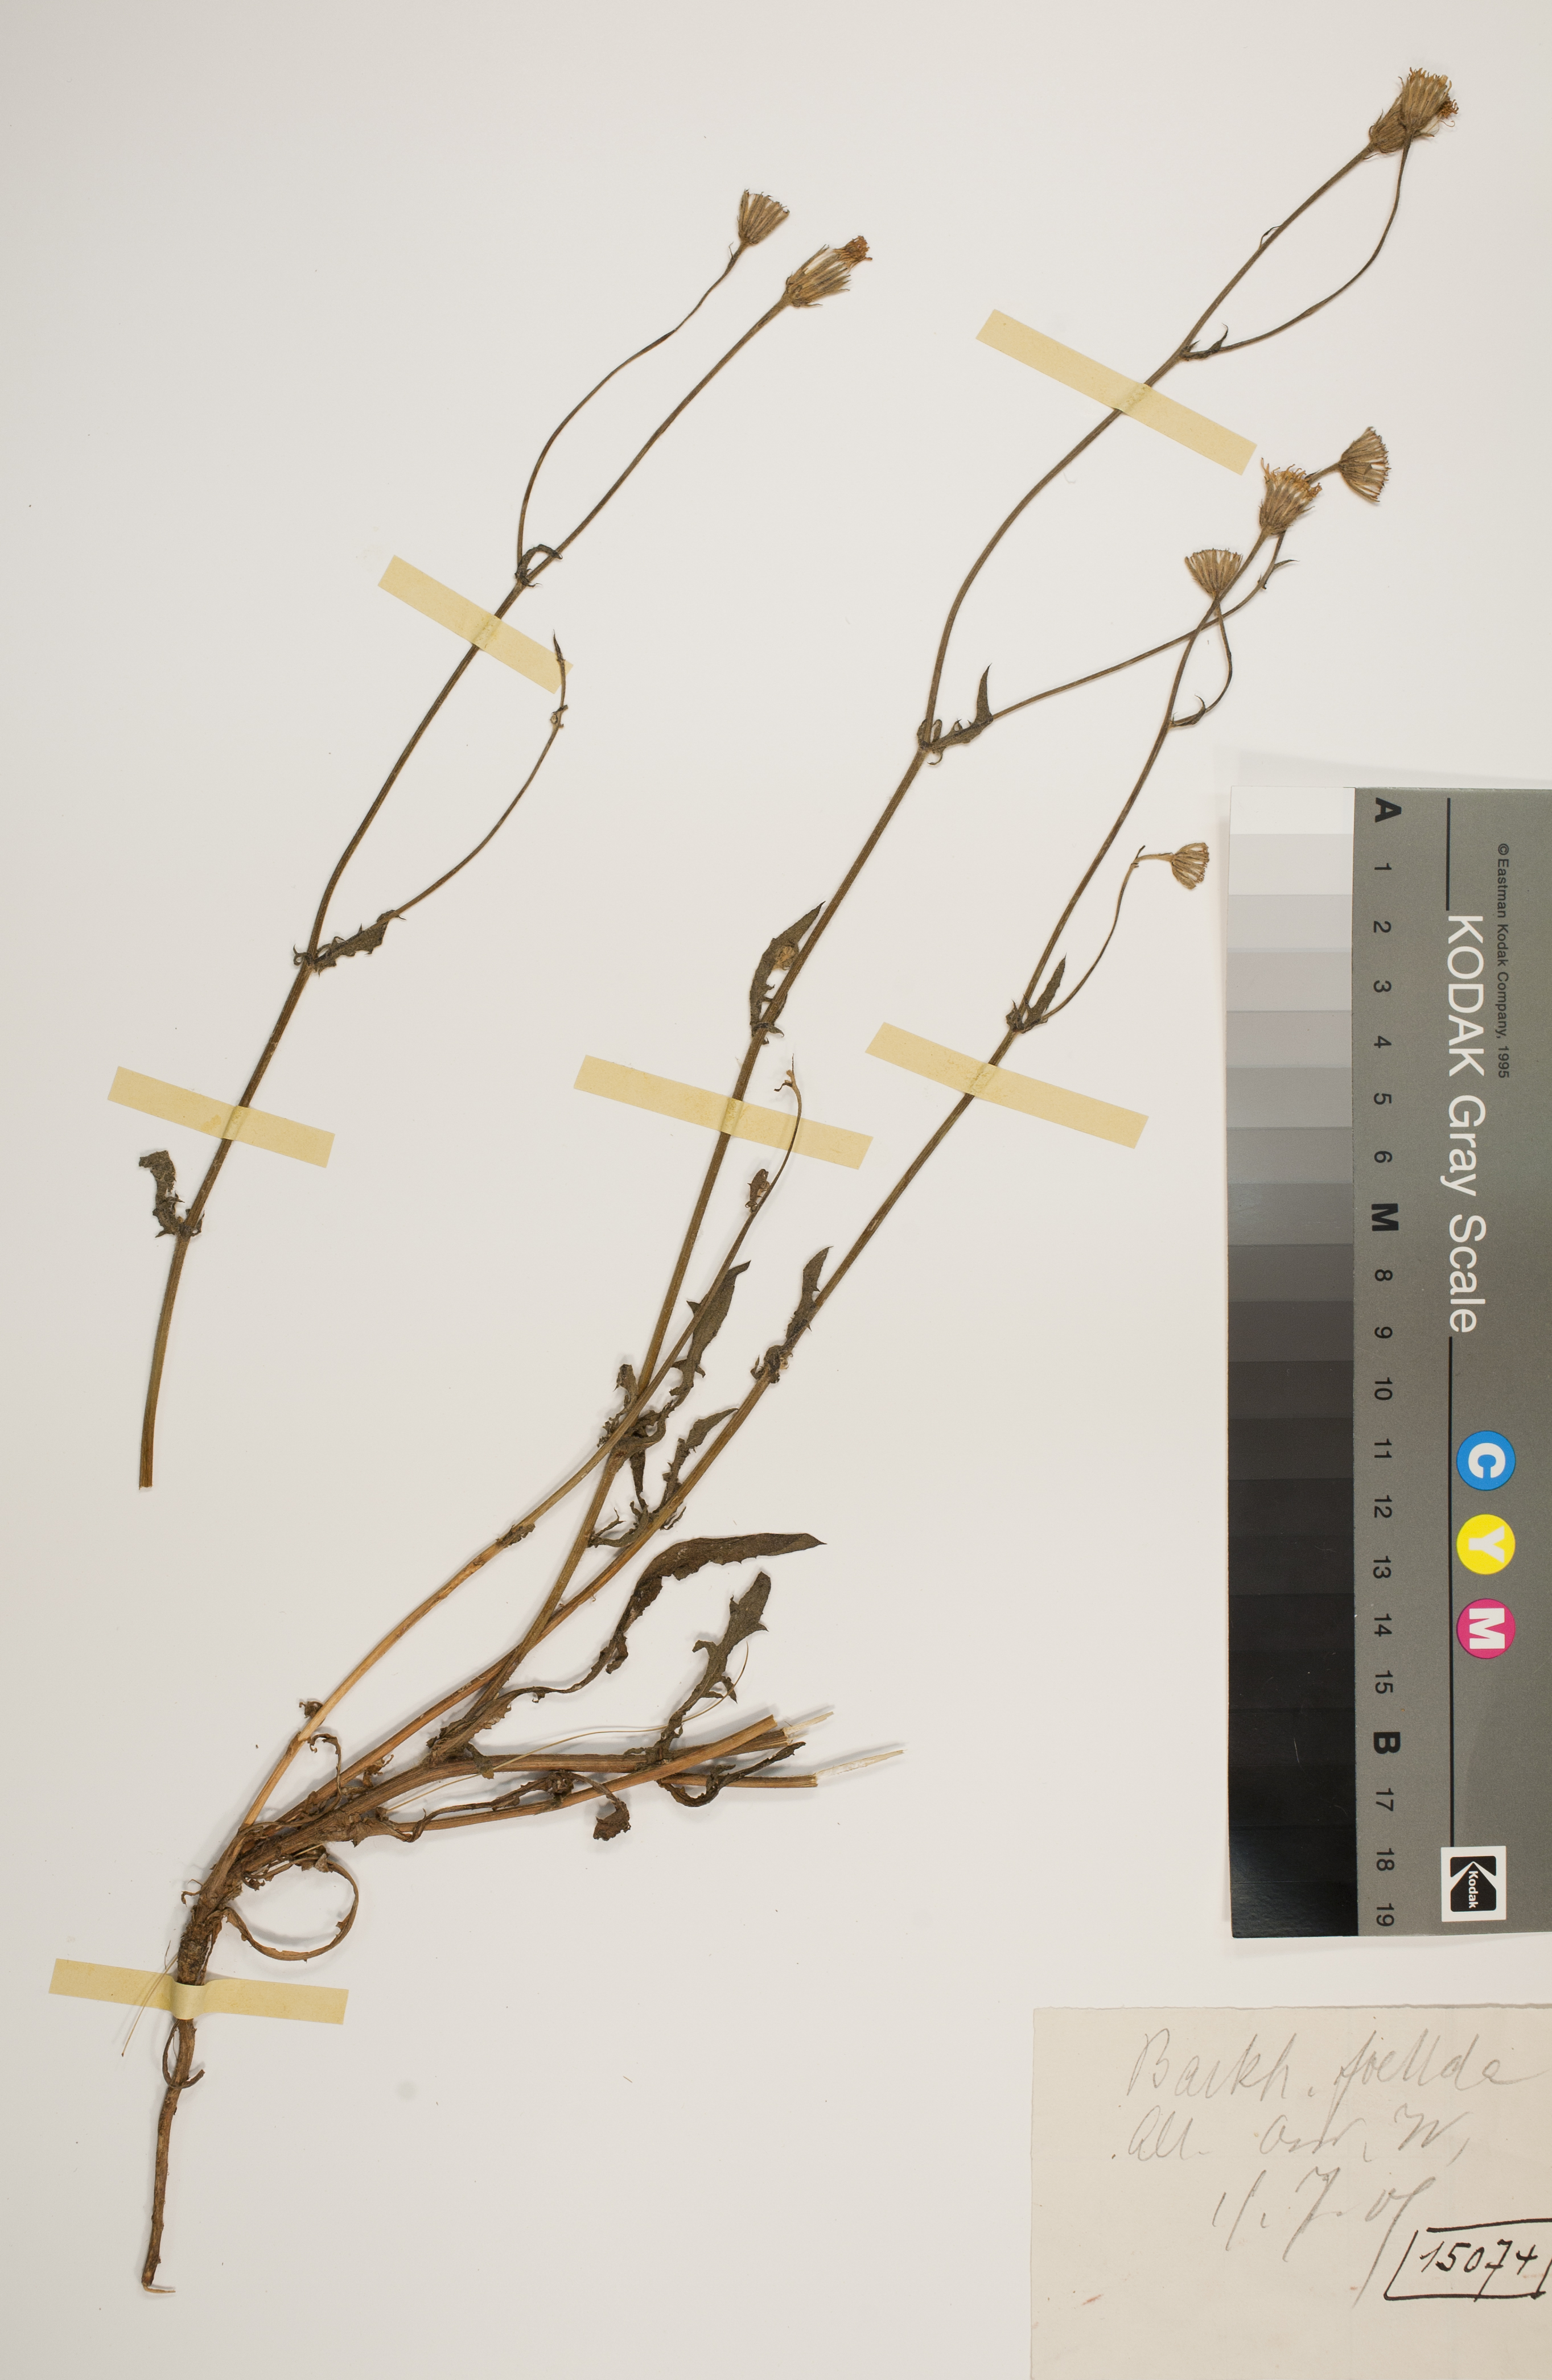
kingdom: Plantae
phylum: Tracheophyta
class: Magnoliopsida
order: Asterales
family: Asteraceae
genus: Crepis
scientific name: Crepis foetida
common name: Stinking hawk's-beard
